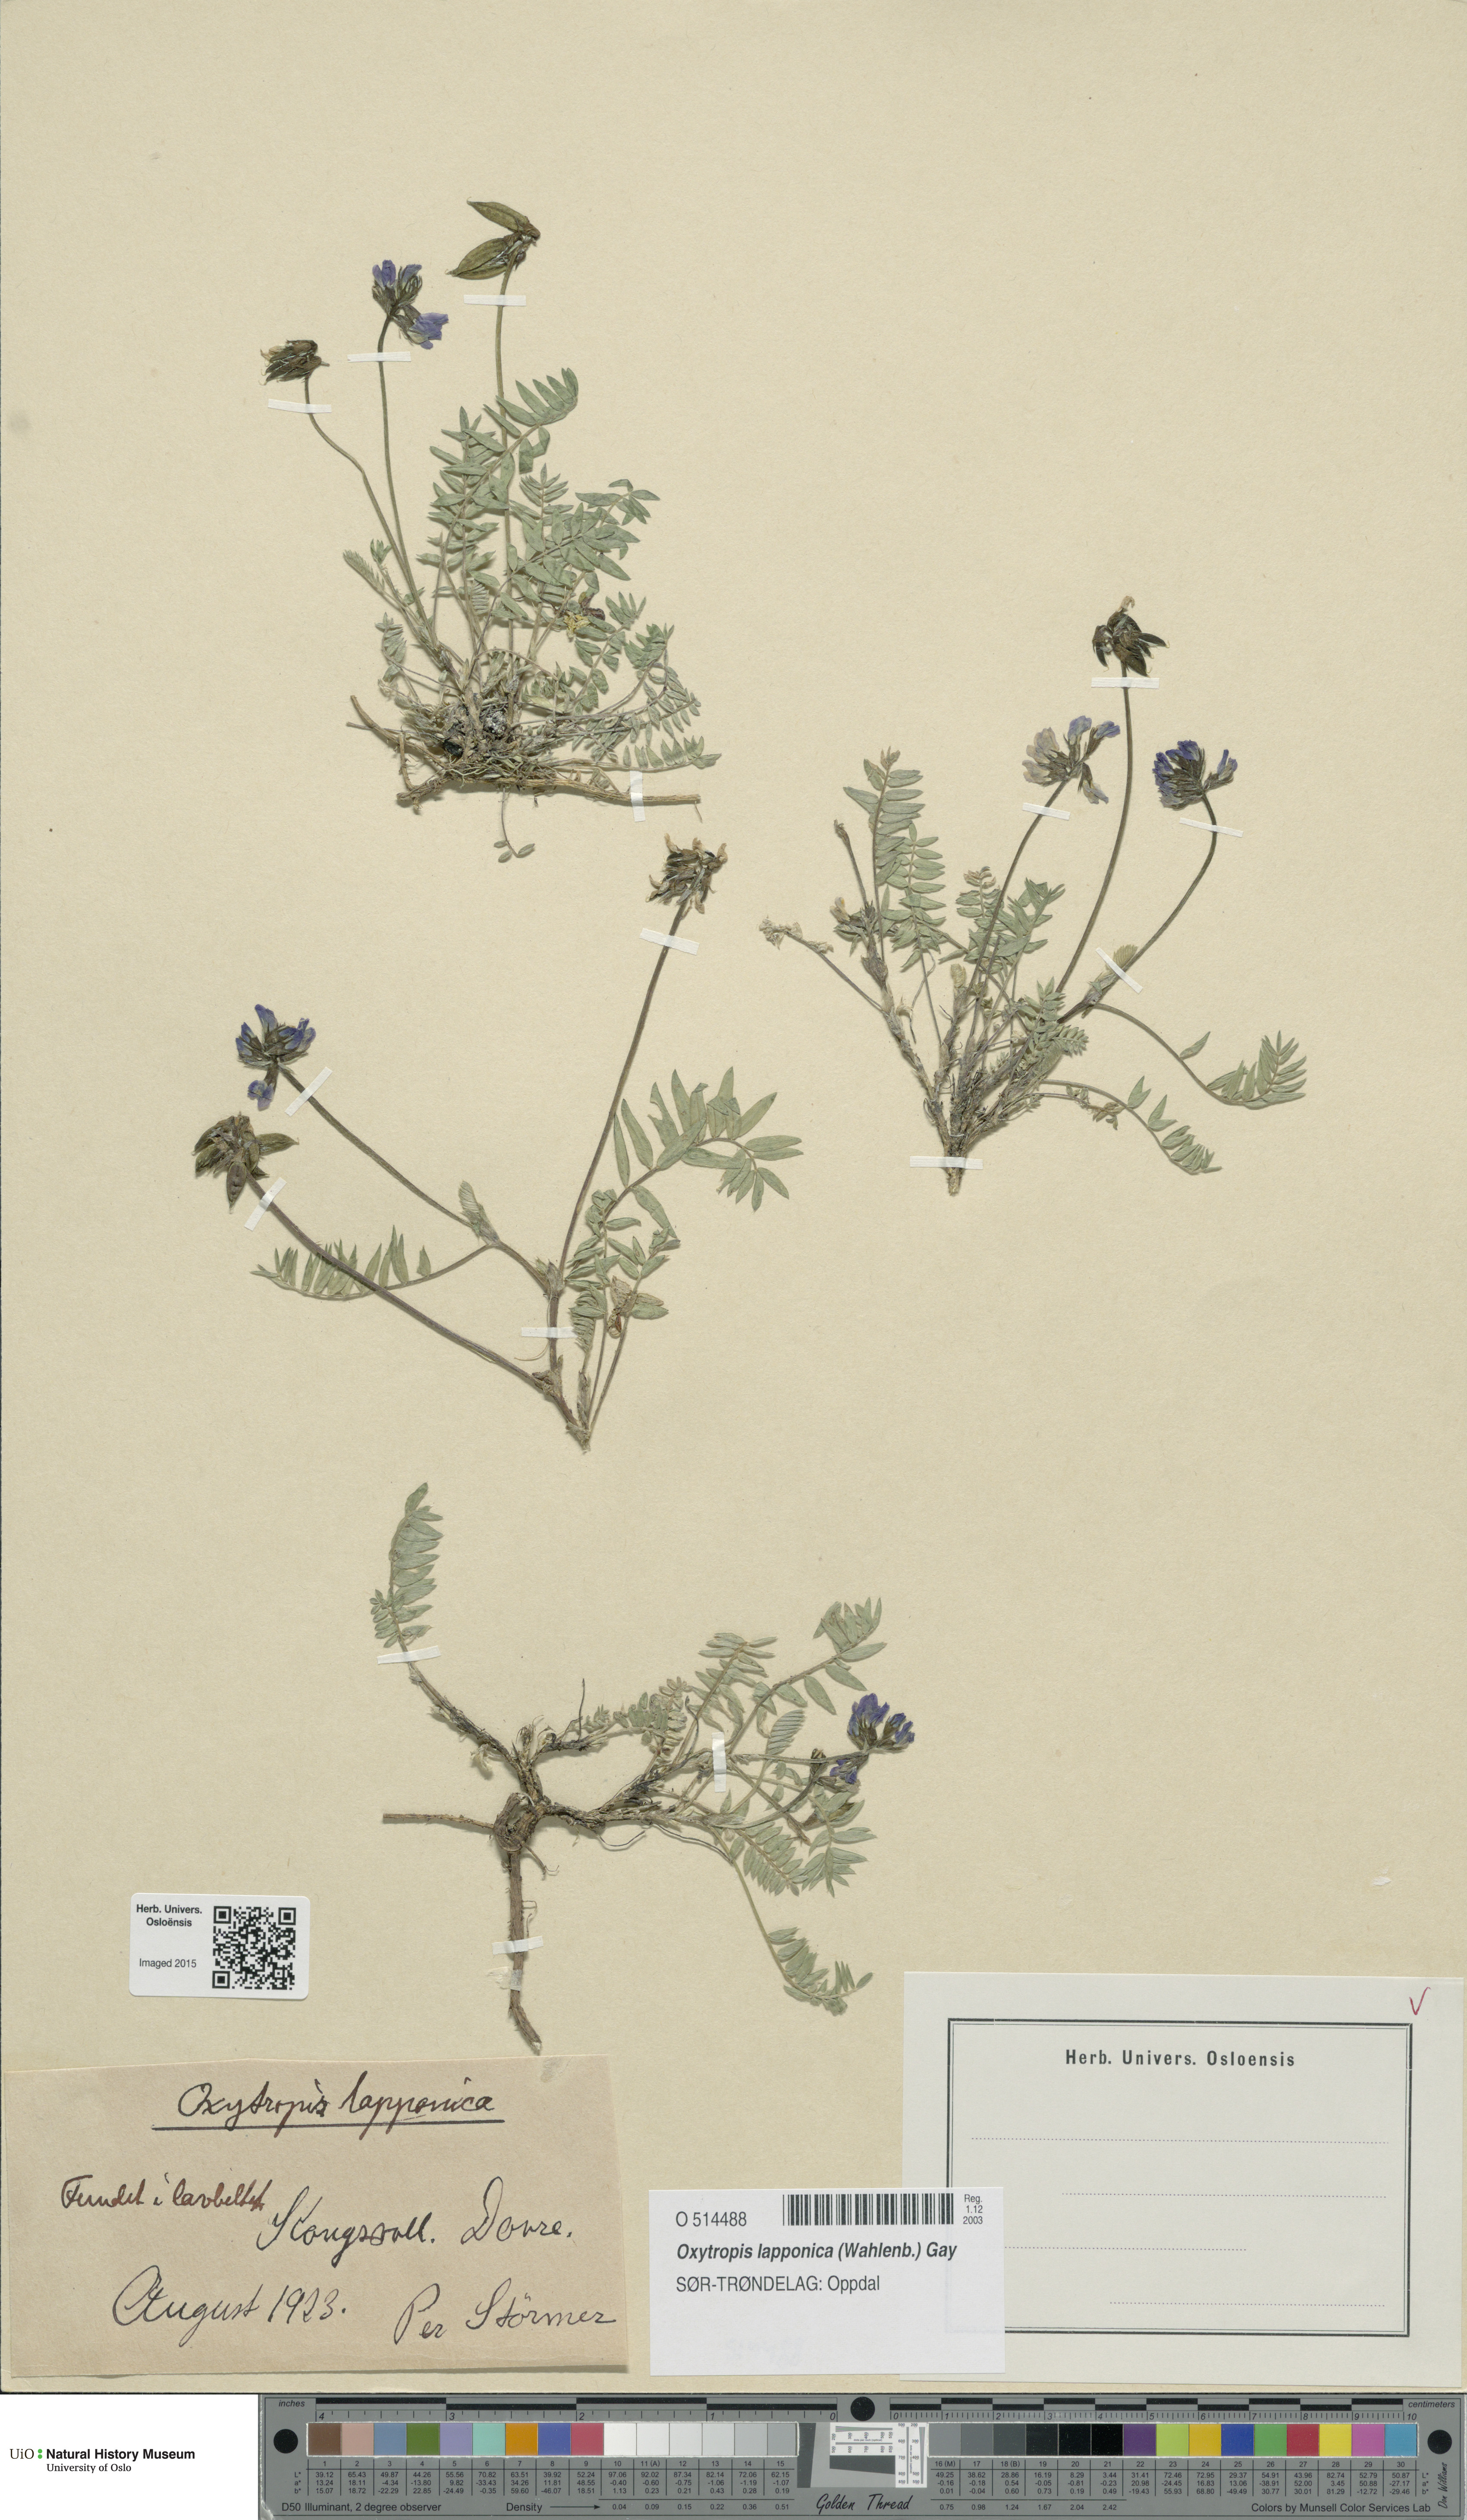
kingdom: Plantae
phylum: Tracheophyta
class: Magnoliopsida
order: Fabales
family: Fabaceae
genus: Oxytropis
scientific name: Oxytropis lapponica
